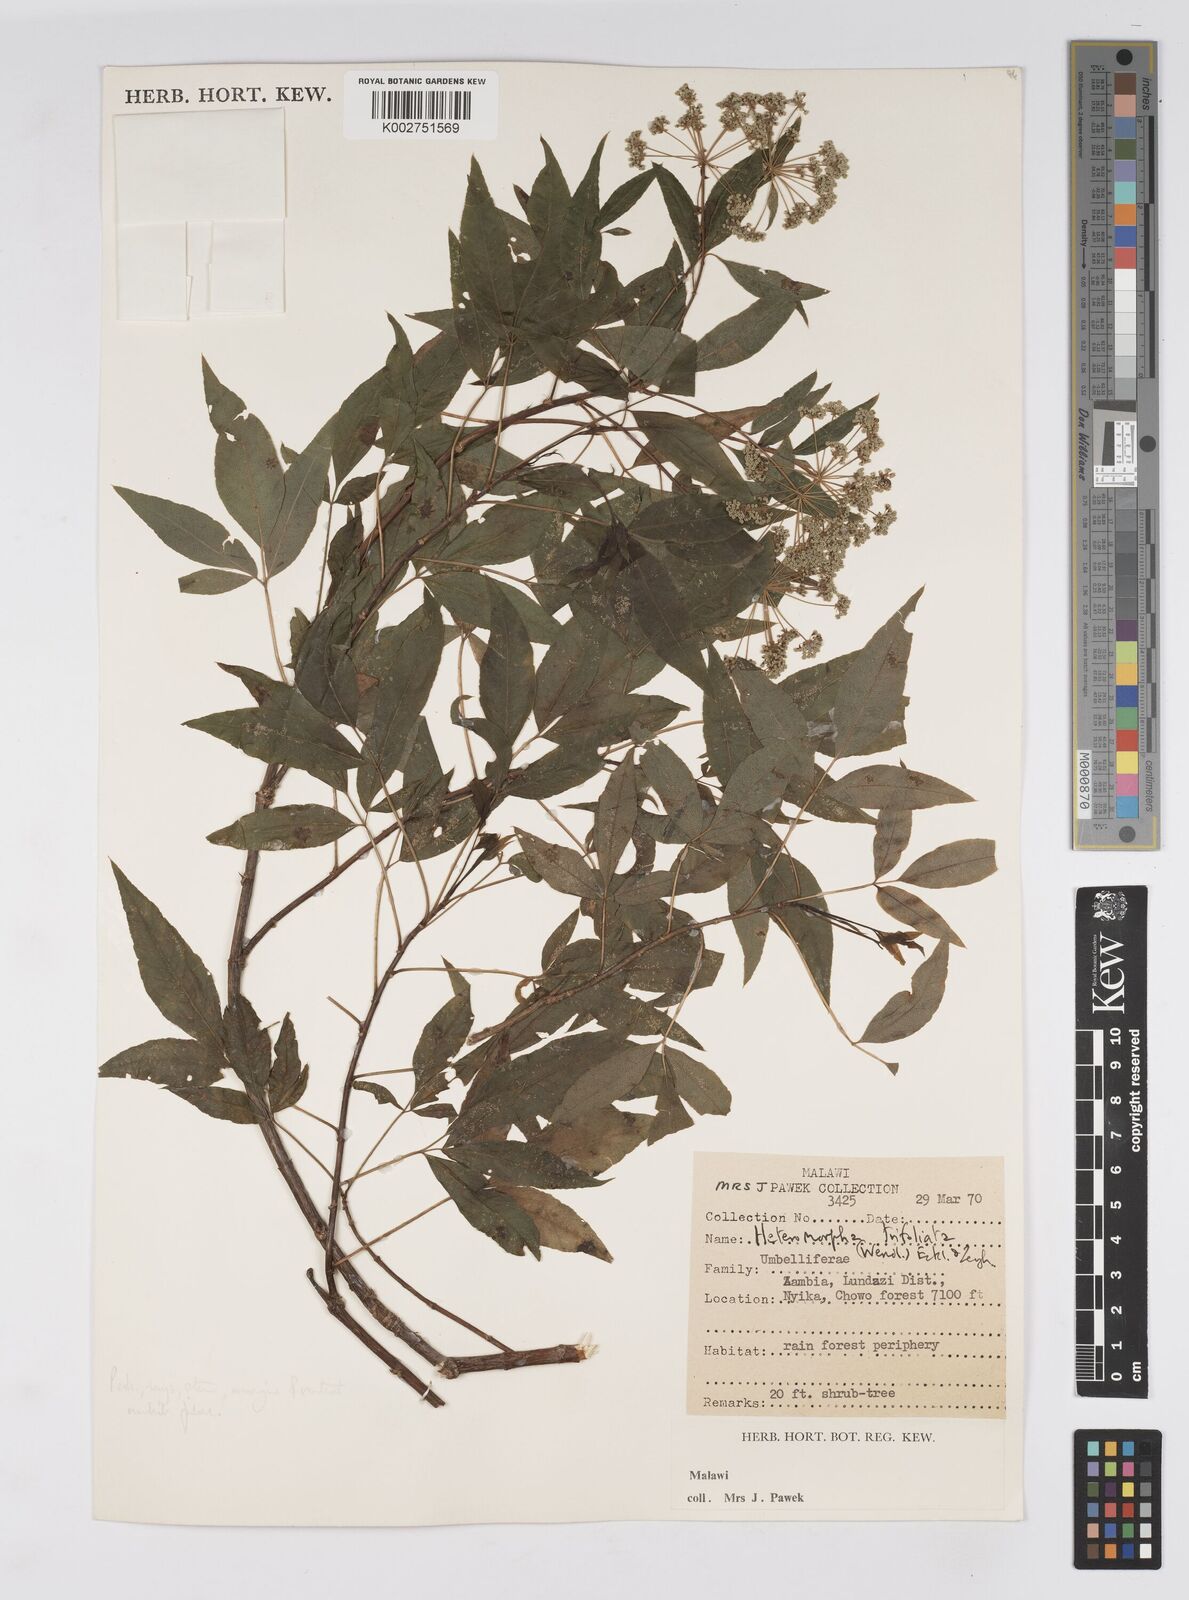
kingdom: Plantae
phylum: Tracheophyta
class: Magnoliopsida
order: Apiales
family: Apiaceae
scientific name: Apiaceae
